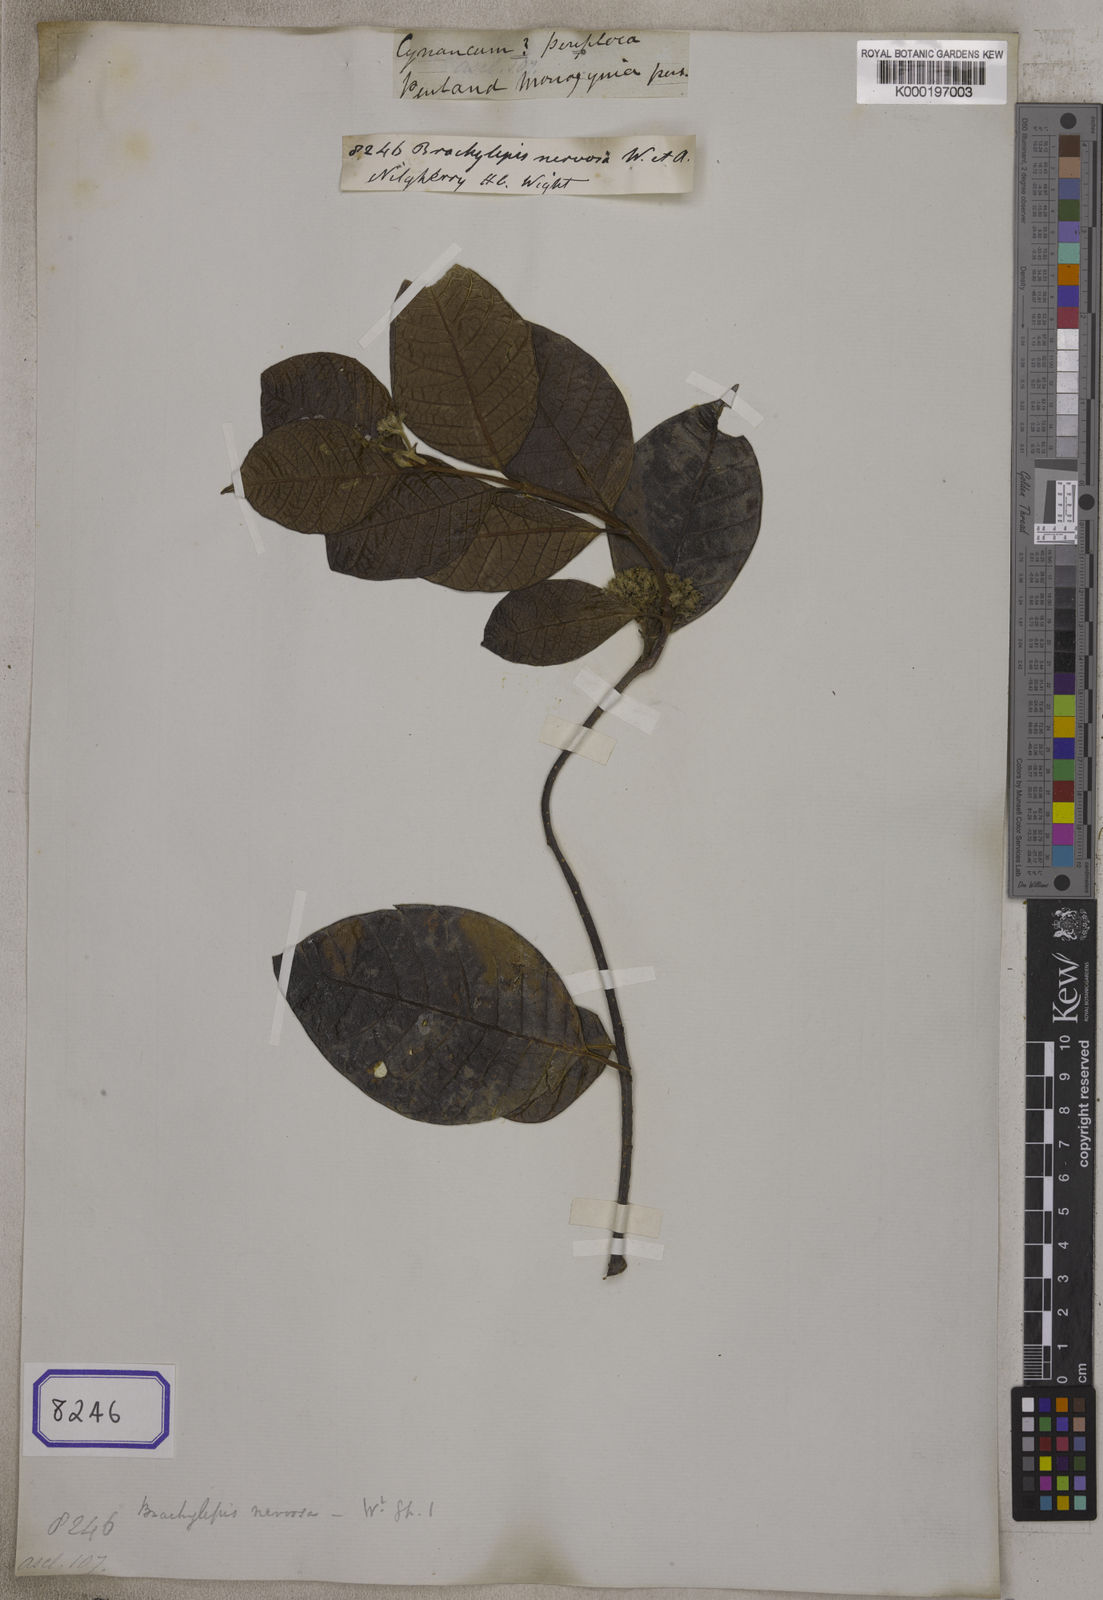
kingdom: Plantae
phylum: Tracheophyta
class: Magnoliopsida
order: Gentianales
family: Apocynaceae
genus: Decalepis
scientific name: Decalepis nervosa
